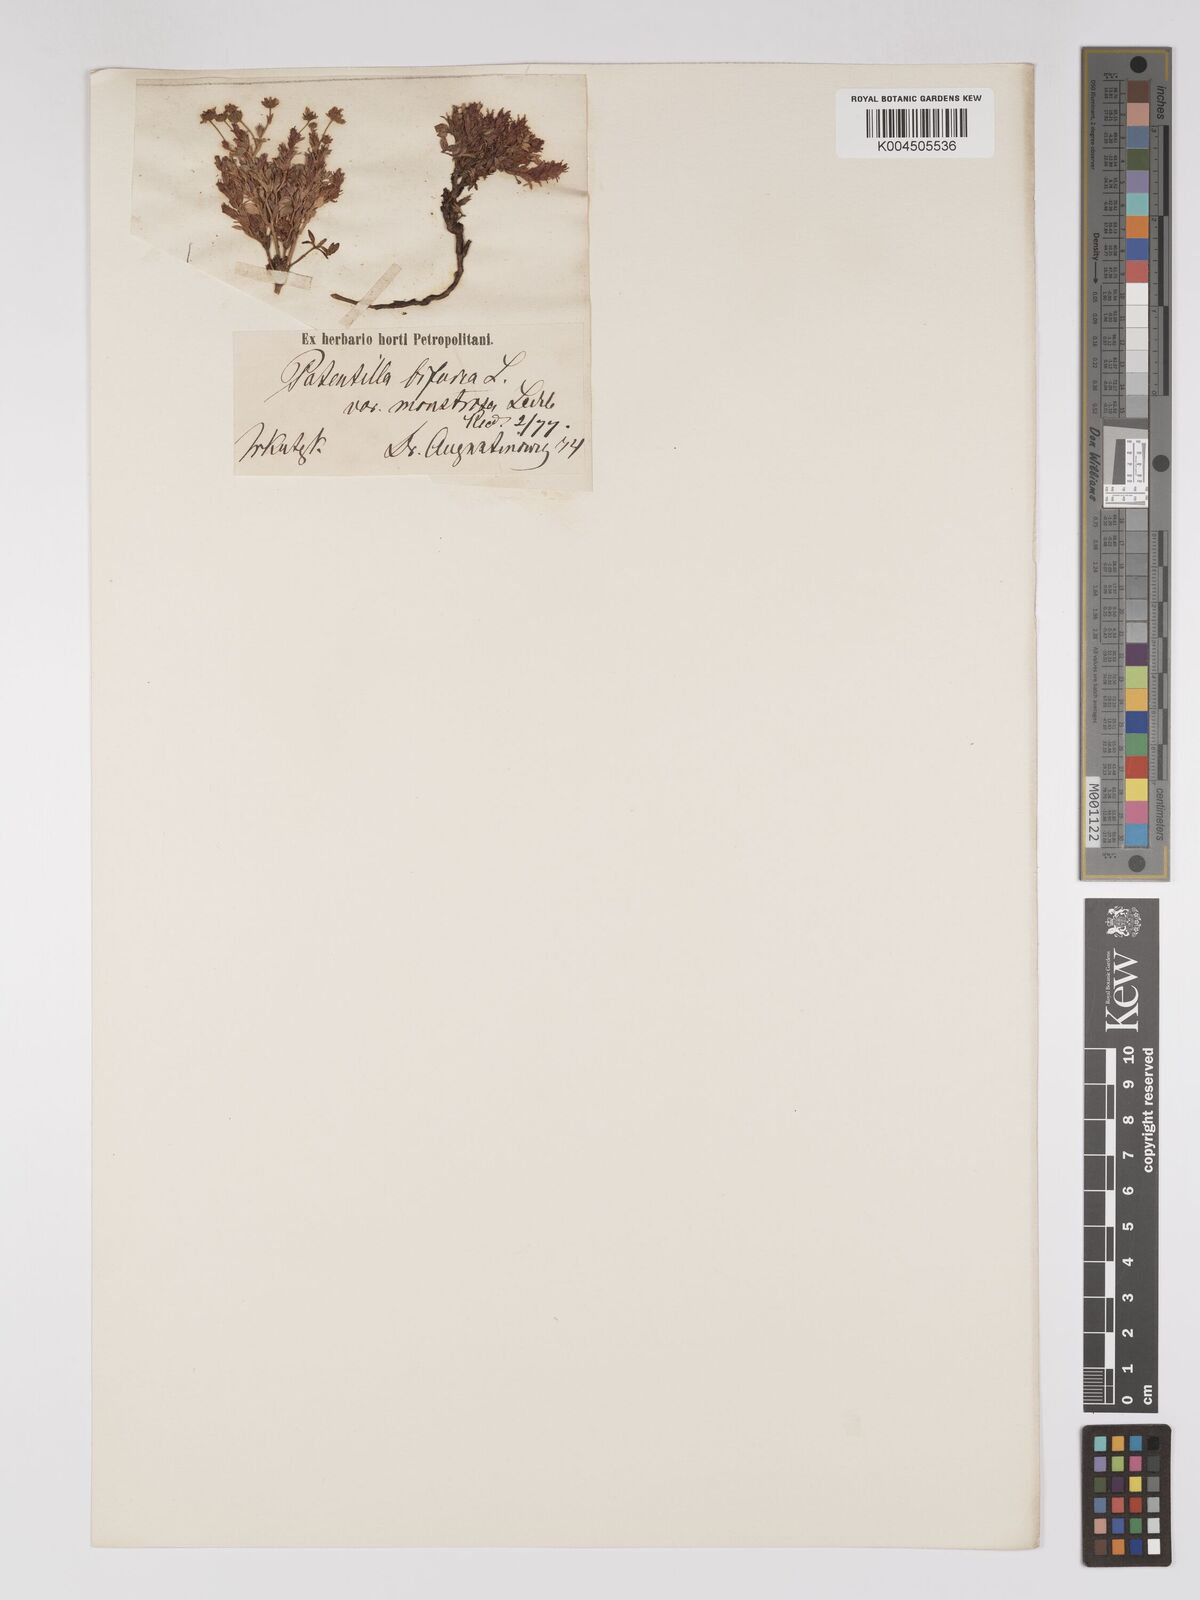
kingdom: Plantae
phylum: Tracheophyta
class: Magnoliopsida
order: Rosales
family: Rosaceae
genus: Sibbaldianthe
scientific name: Sibbaldianthe bifurca
